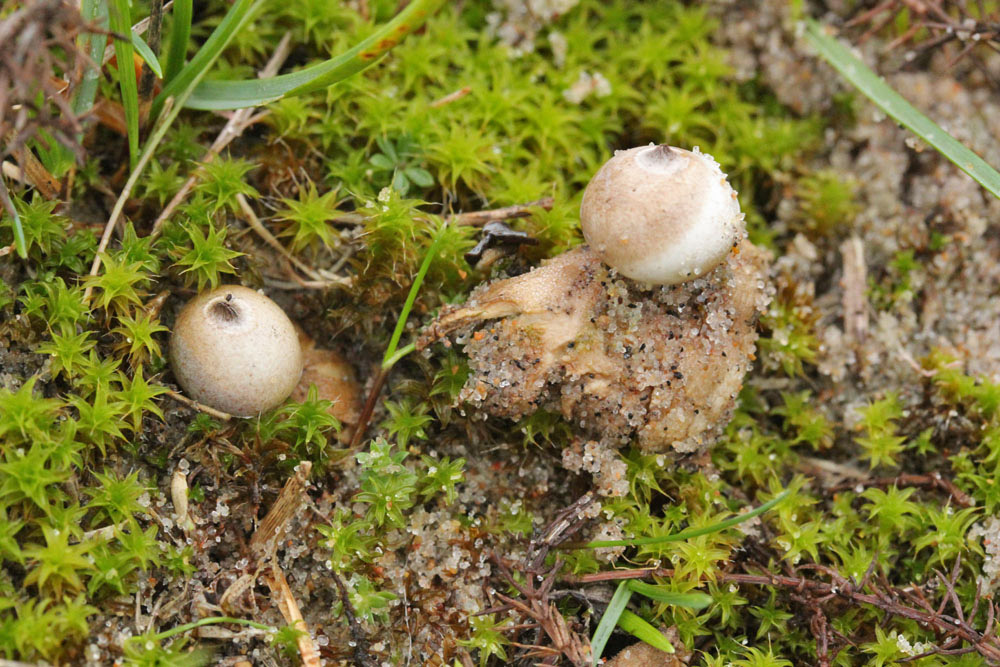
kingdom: Fungi
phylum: Basidiomycota
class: Agaricomycetes
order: Geastrales
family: Geastraceae
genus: Geastrum
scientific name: Geastrum minimum
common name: liden stjernebold
